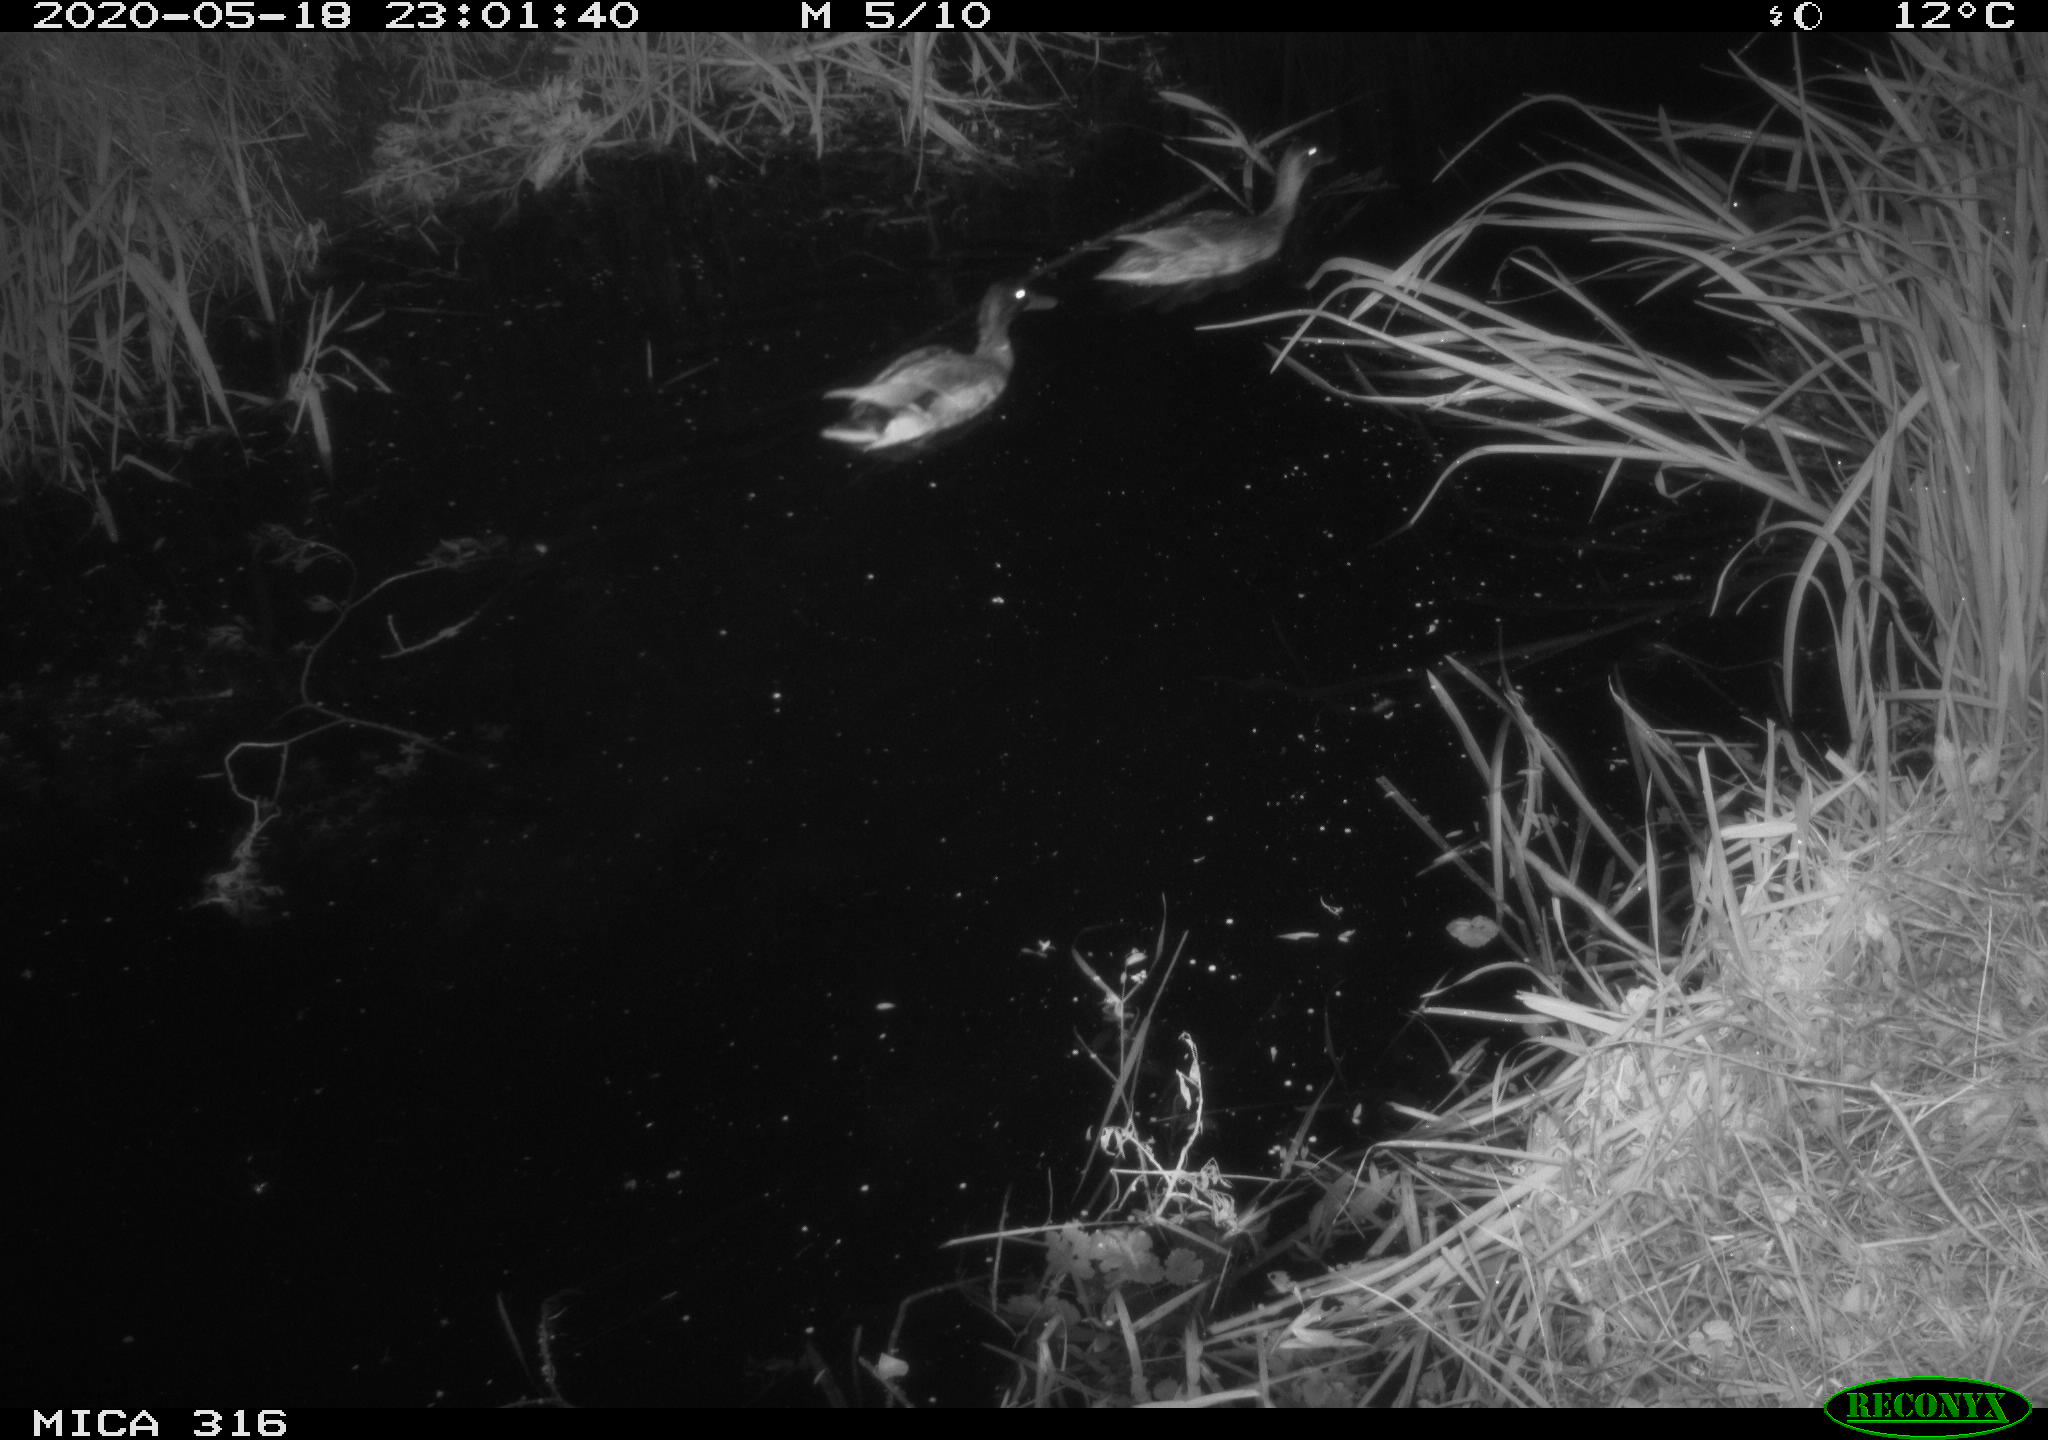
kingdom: Animalia
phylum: Chordata
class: Aves
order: Anseriformes
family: Anatidae
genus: Anas
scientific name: Anas platyrhynchos
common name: Mallard
